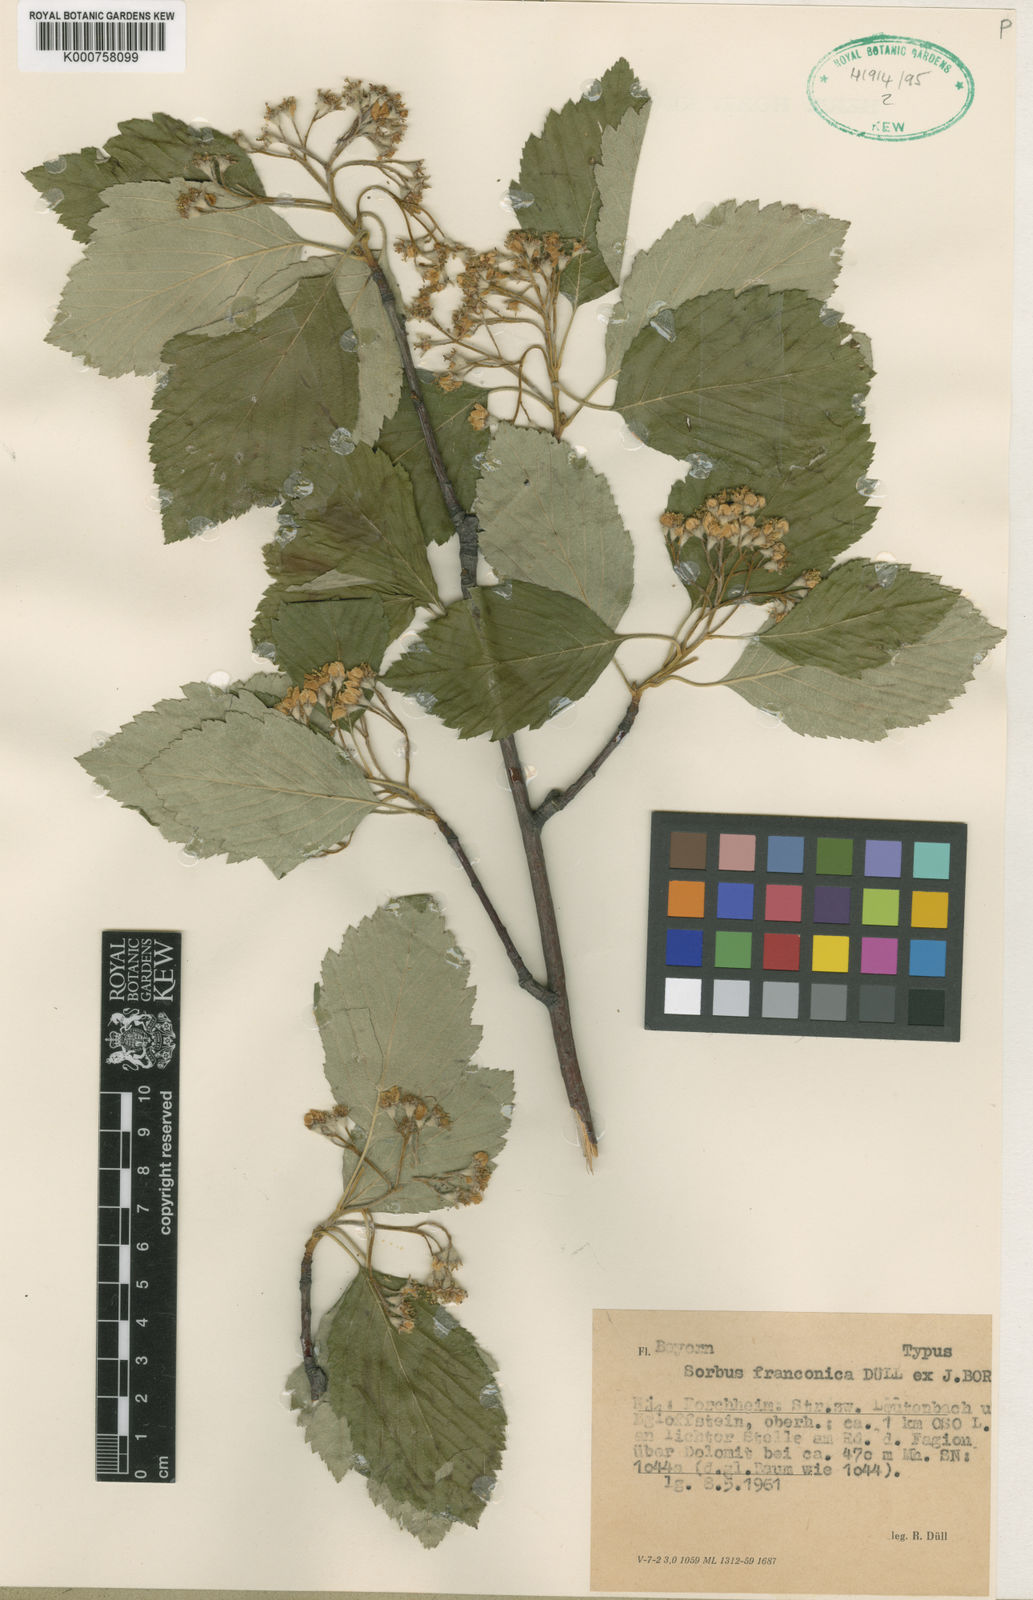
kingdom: Plantae
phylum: Tracheophyta
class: Magnoliopsida
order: Rosales
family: Rosaceae
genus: Sorbus
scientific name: Sorbus
